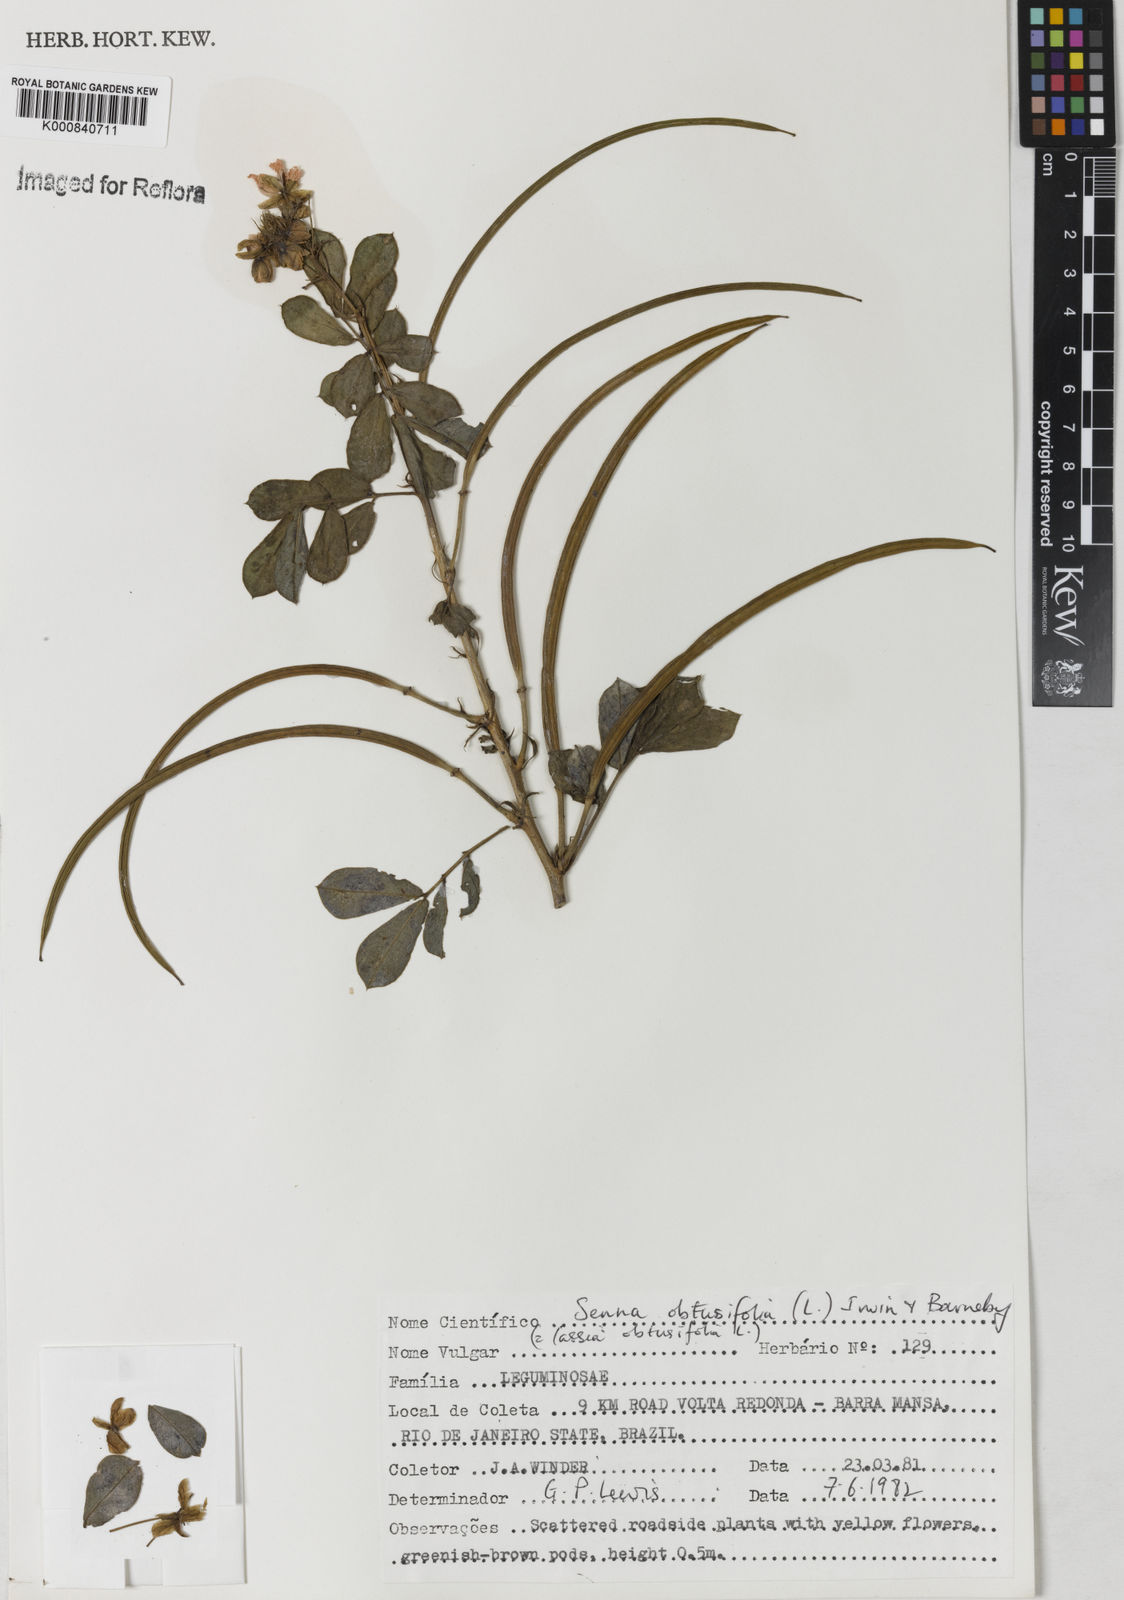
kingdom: Plantae
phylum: Tracheophyta
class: Magnoliopsida
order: Fabales
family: Fabaceae
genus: Senna
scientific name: Senna obtusifolia
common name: Java-bean
